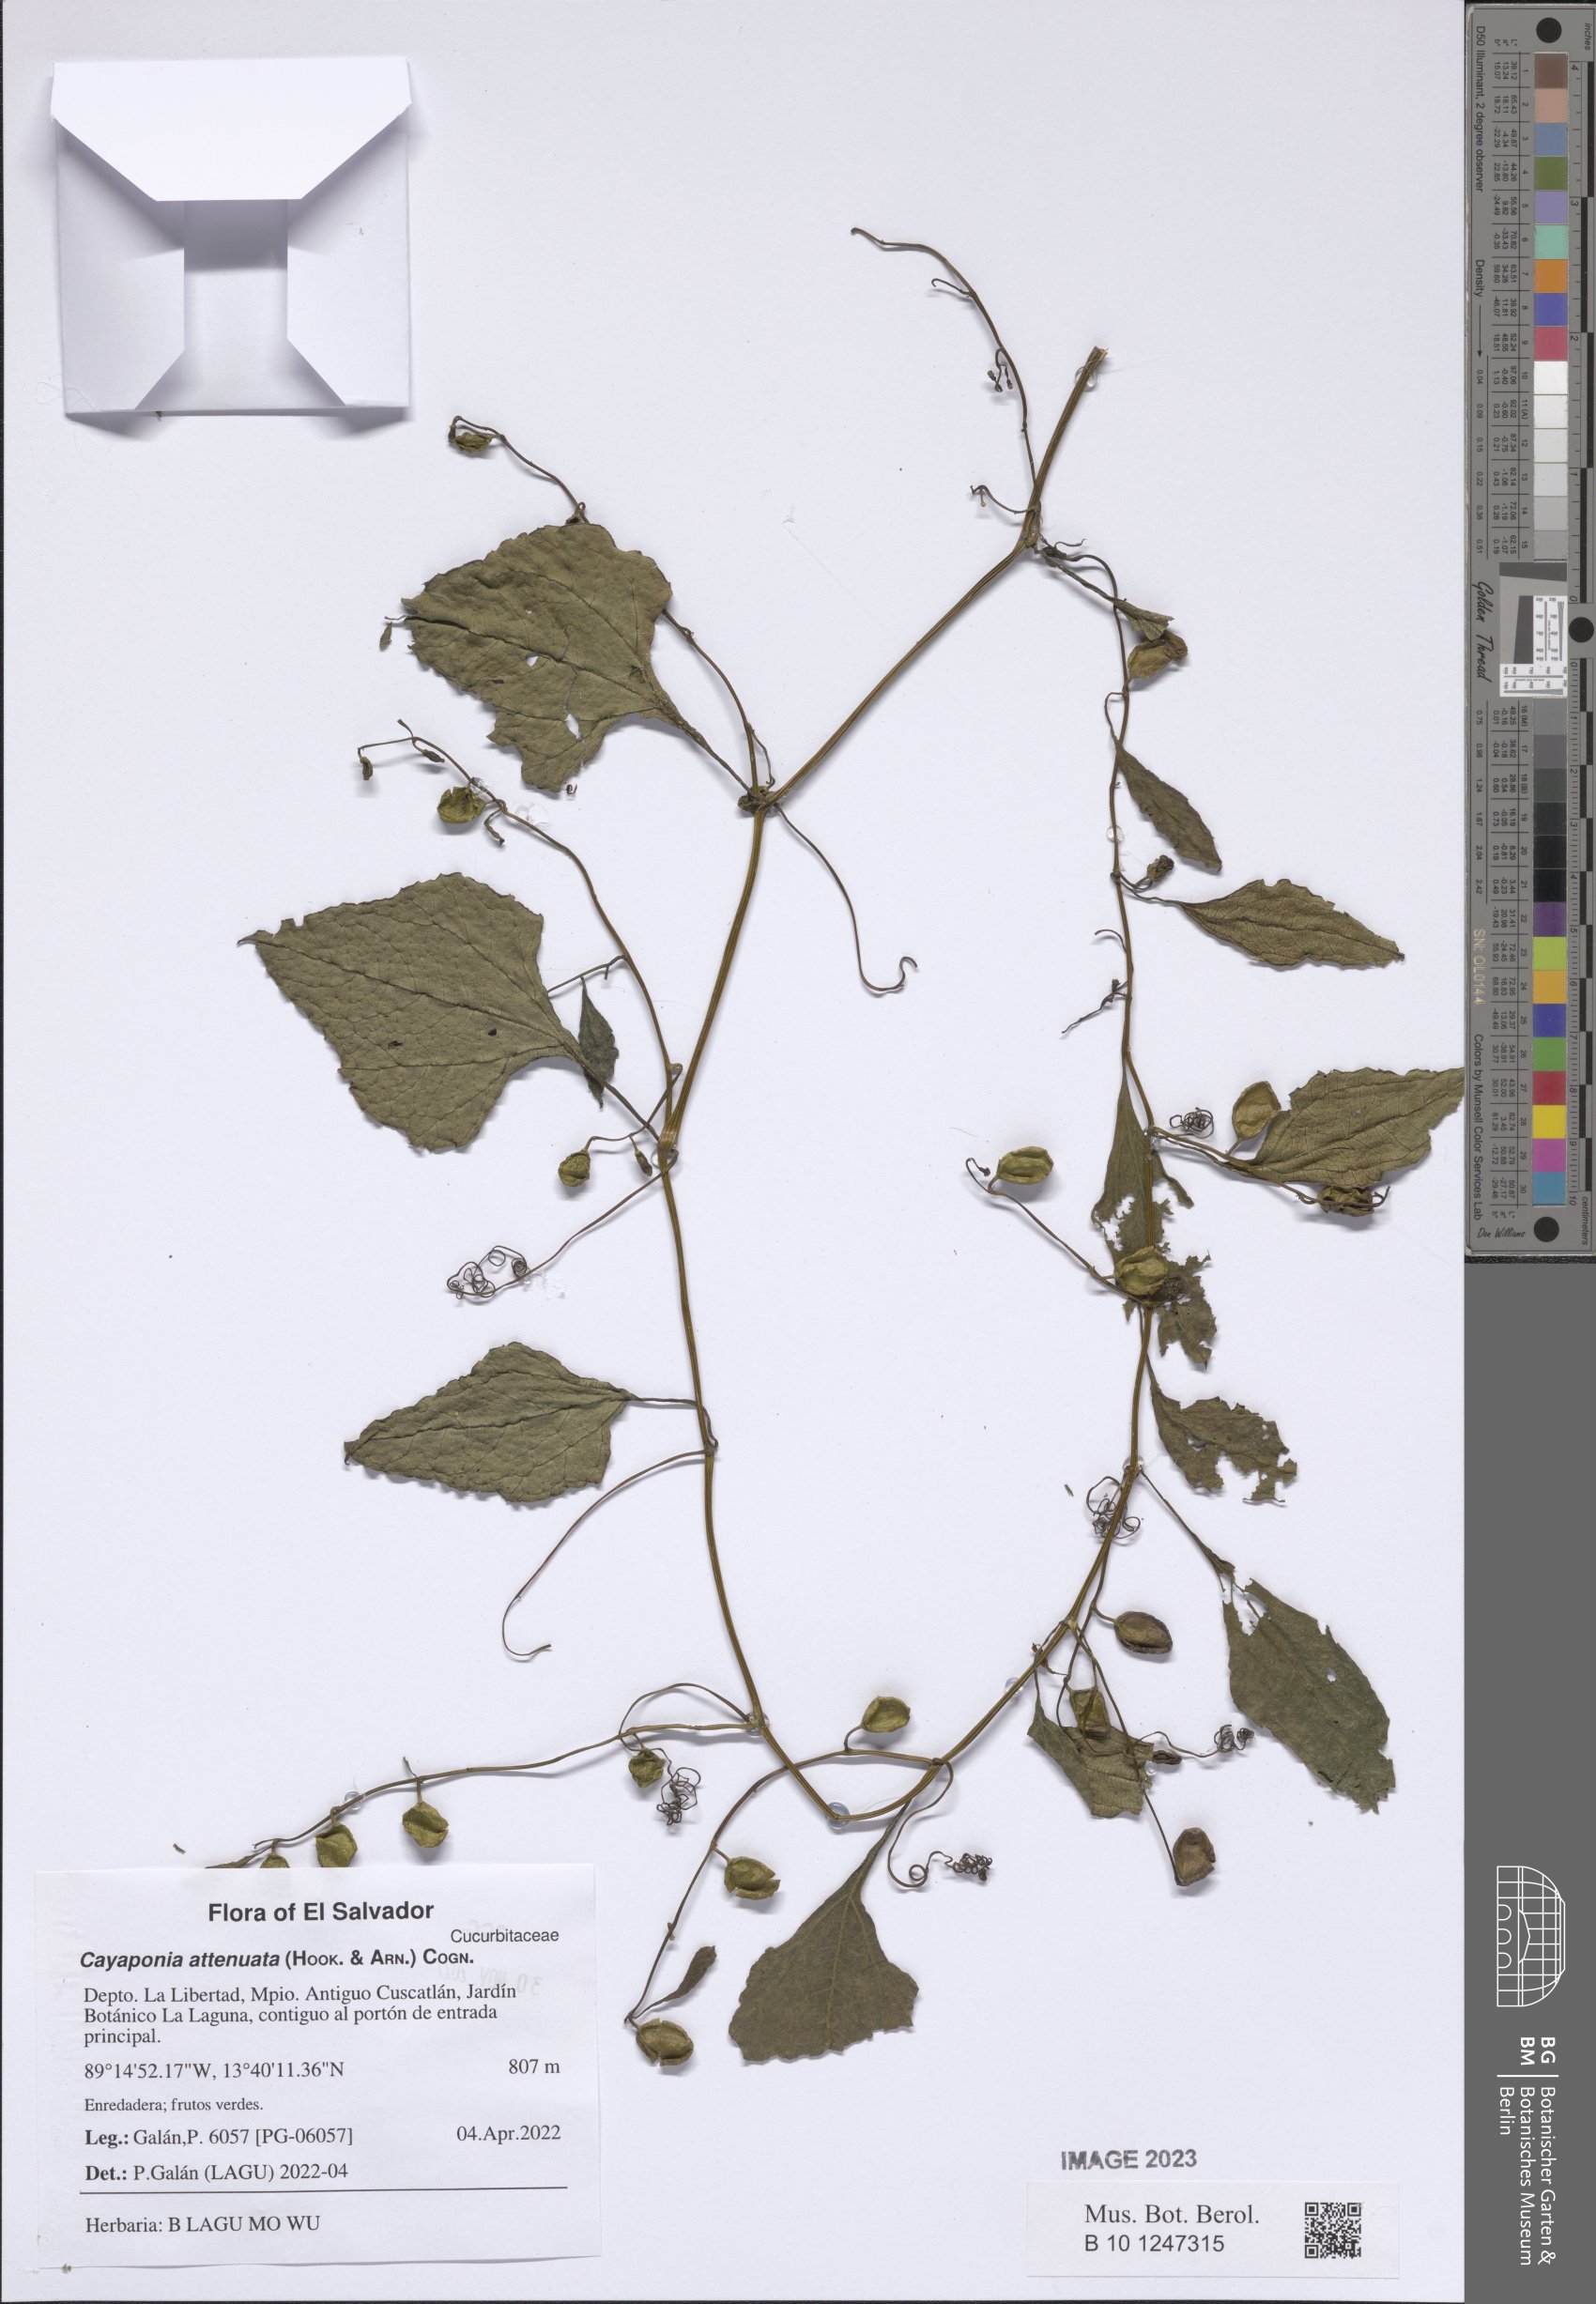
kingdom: Plantae
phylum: Tracheophyta
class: Magnoliopsida
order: Cucurbitales
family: Cucurbitaceae
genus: Cayaponia
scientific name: Cayaponia attenuata
